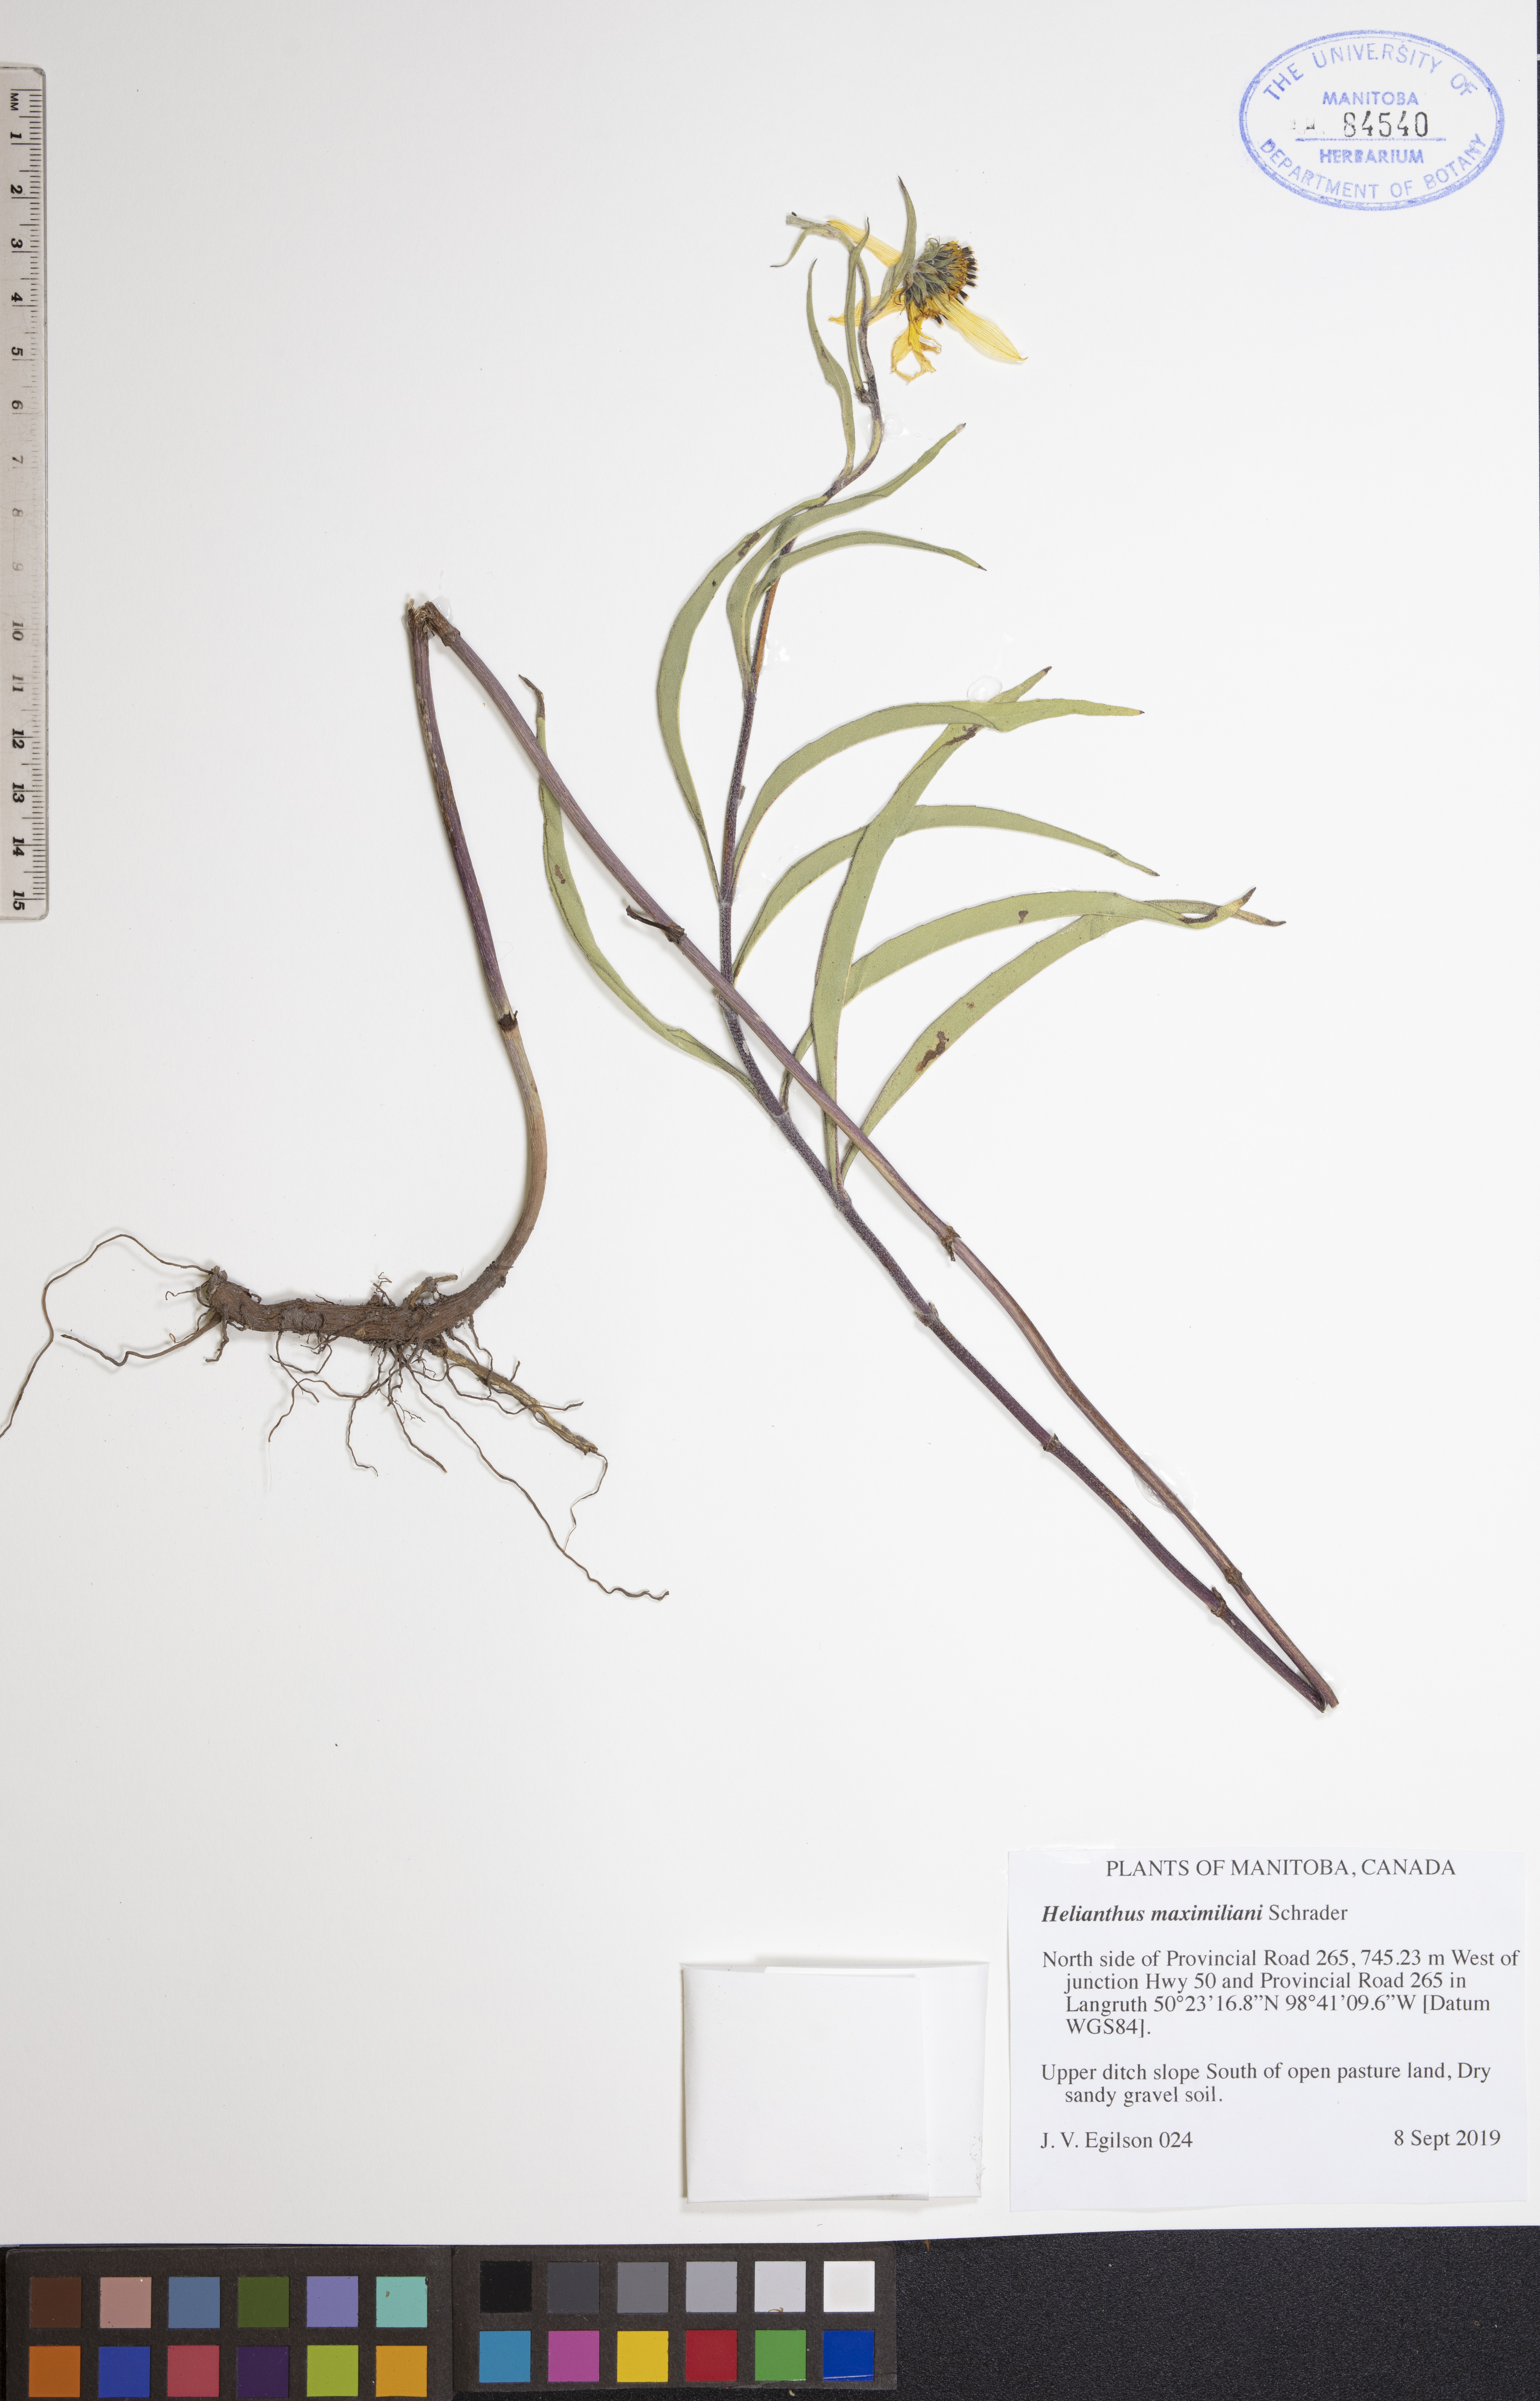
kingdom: Plantae
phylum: Tracheophyta
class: Magnoliopsida
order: Asterales
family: Asteraceae
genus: Helianthus
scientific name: Helianthus maximiliani
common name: Maximilian's sunflower
